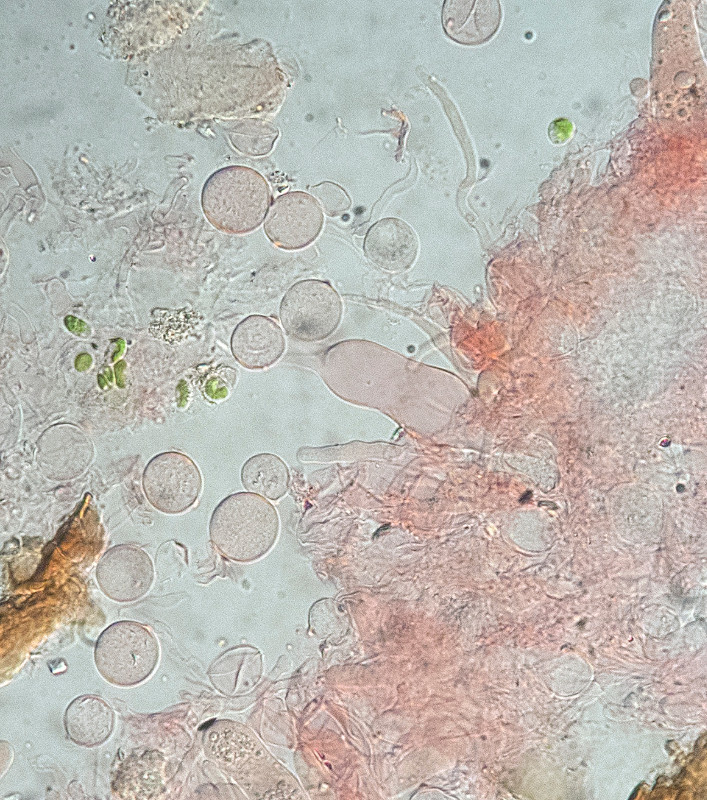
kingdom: Fungi
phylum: Basidiomycota
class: Agaricomycetes
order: Hymenochaetales
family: Rickenellaceae
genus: Globulicium
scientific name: Globulicium hiemale
